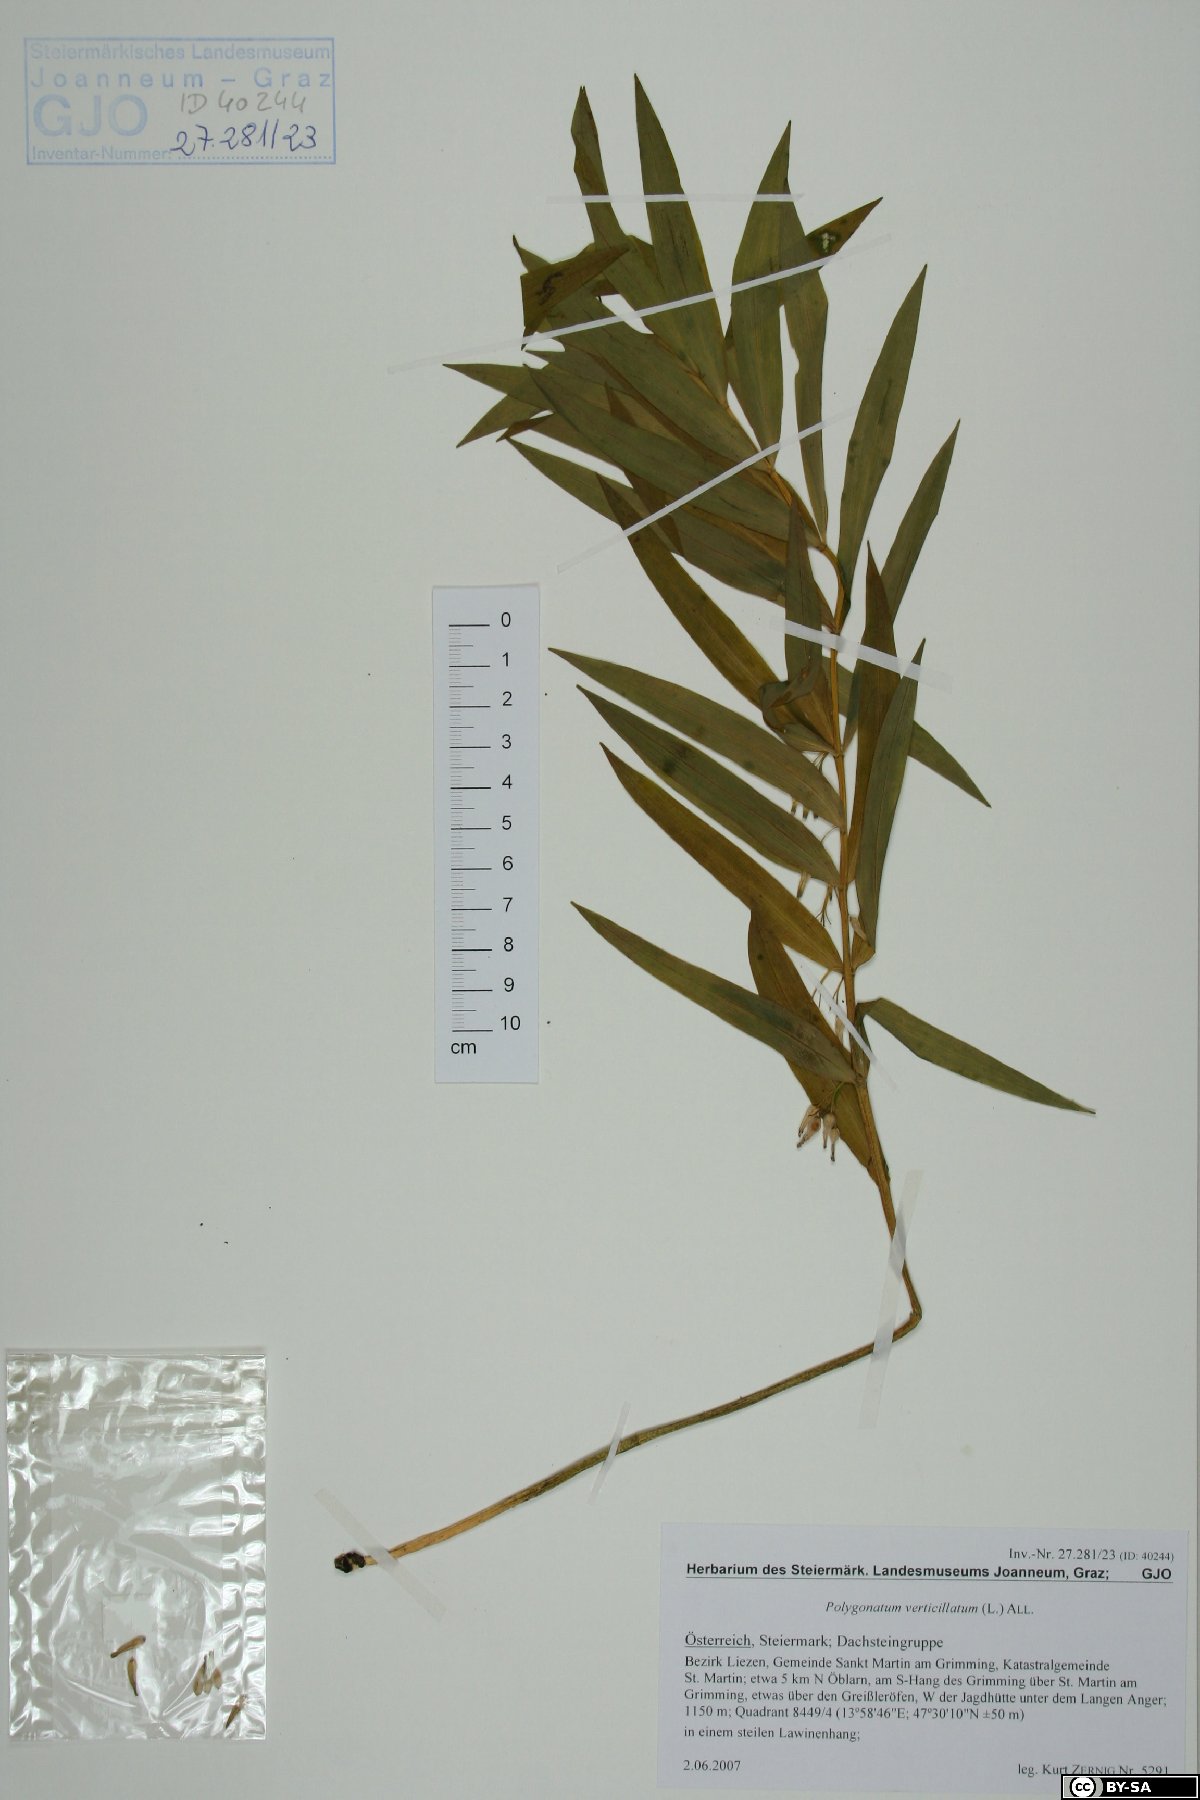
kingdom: Plantae
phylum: Tracheophyta
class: Liliopsida
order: Asparagales
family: Asparagaceae
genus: Polygonatum
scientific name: Polygonatum verticillatum
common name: Whorled solomon's-seal
